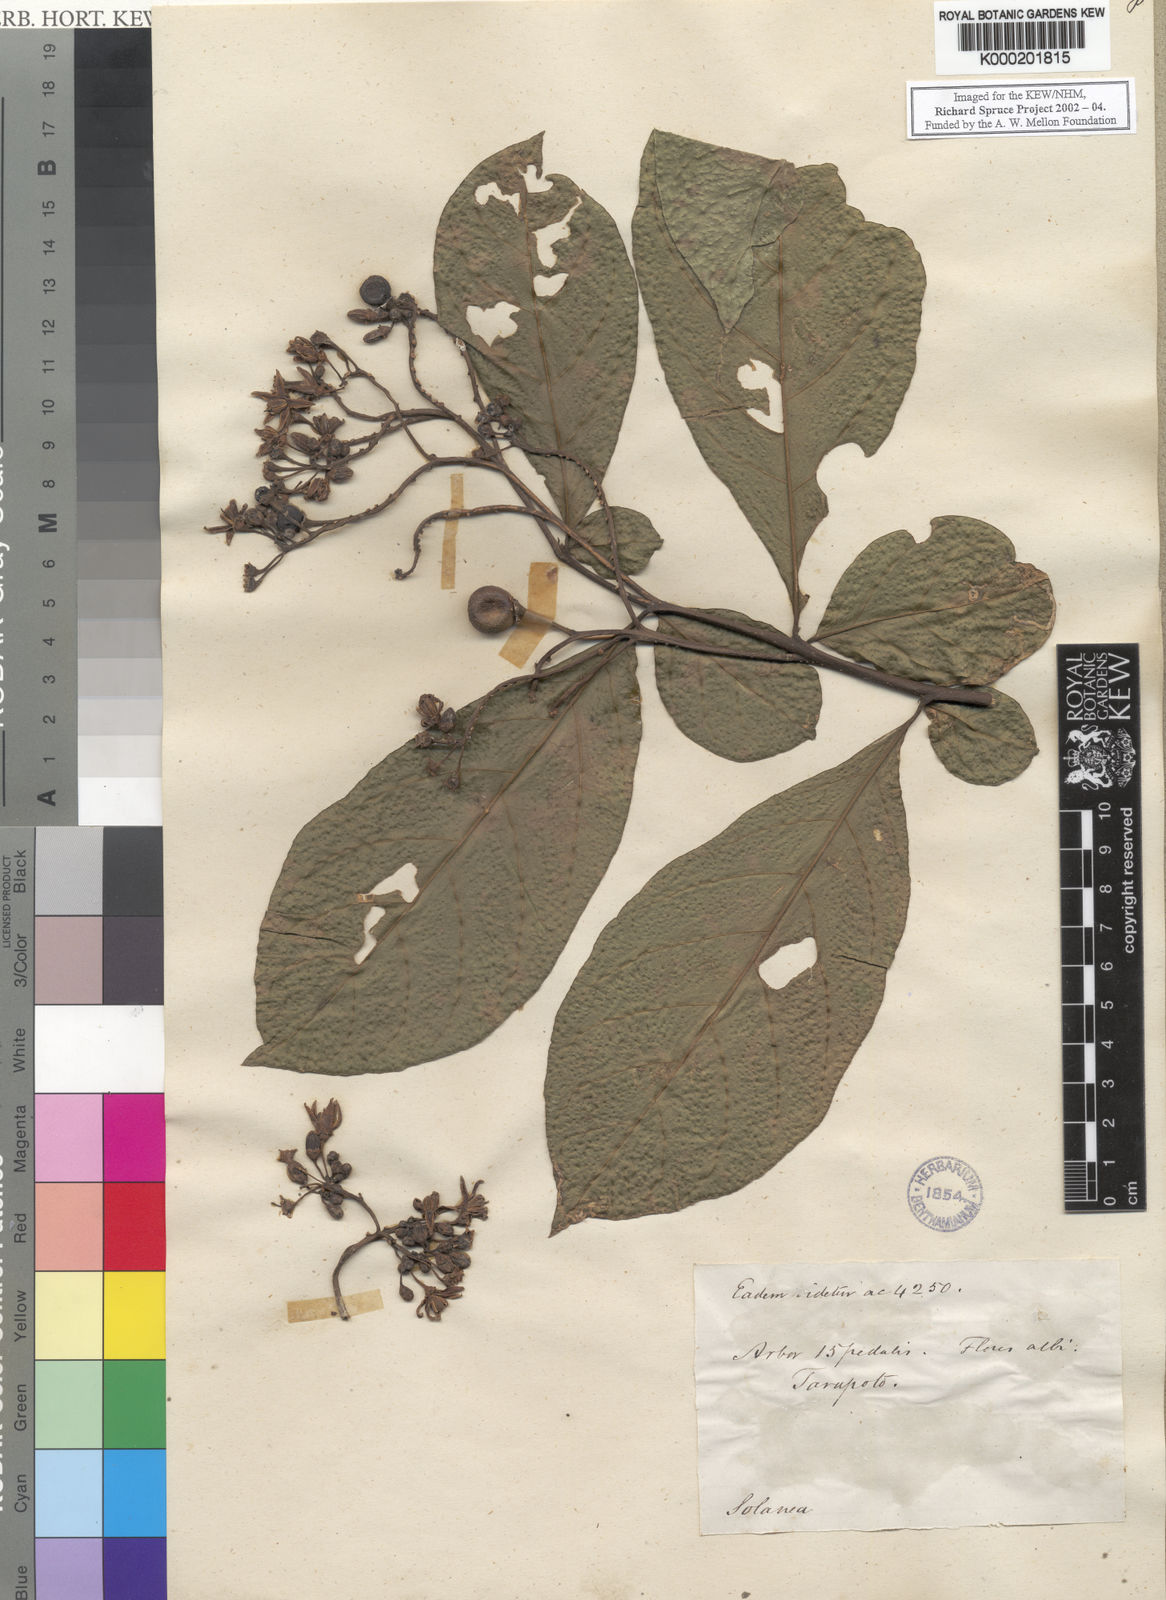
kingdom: Plantae
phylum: Tracheophyta
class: Magnoliopsida
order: Solanales
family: Solanaceae
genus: Solanum
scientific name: Solanum sessile
